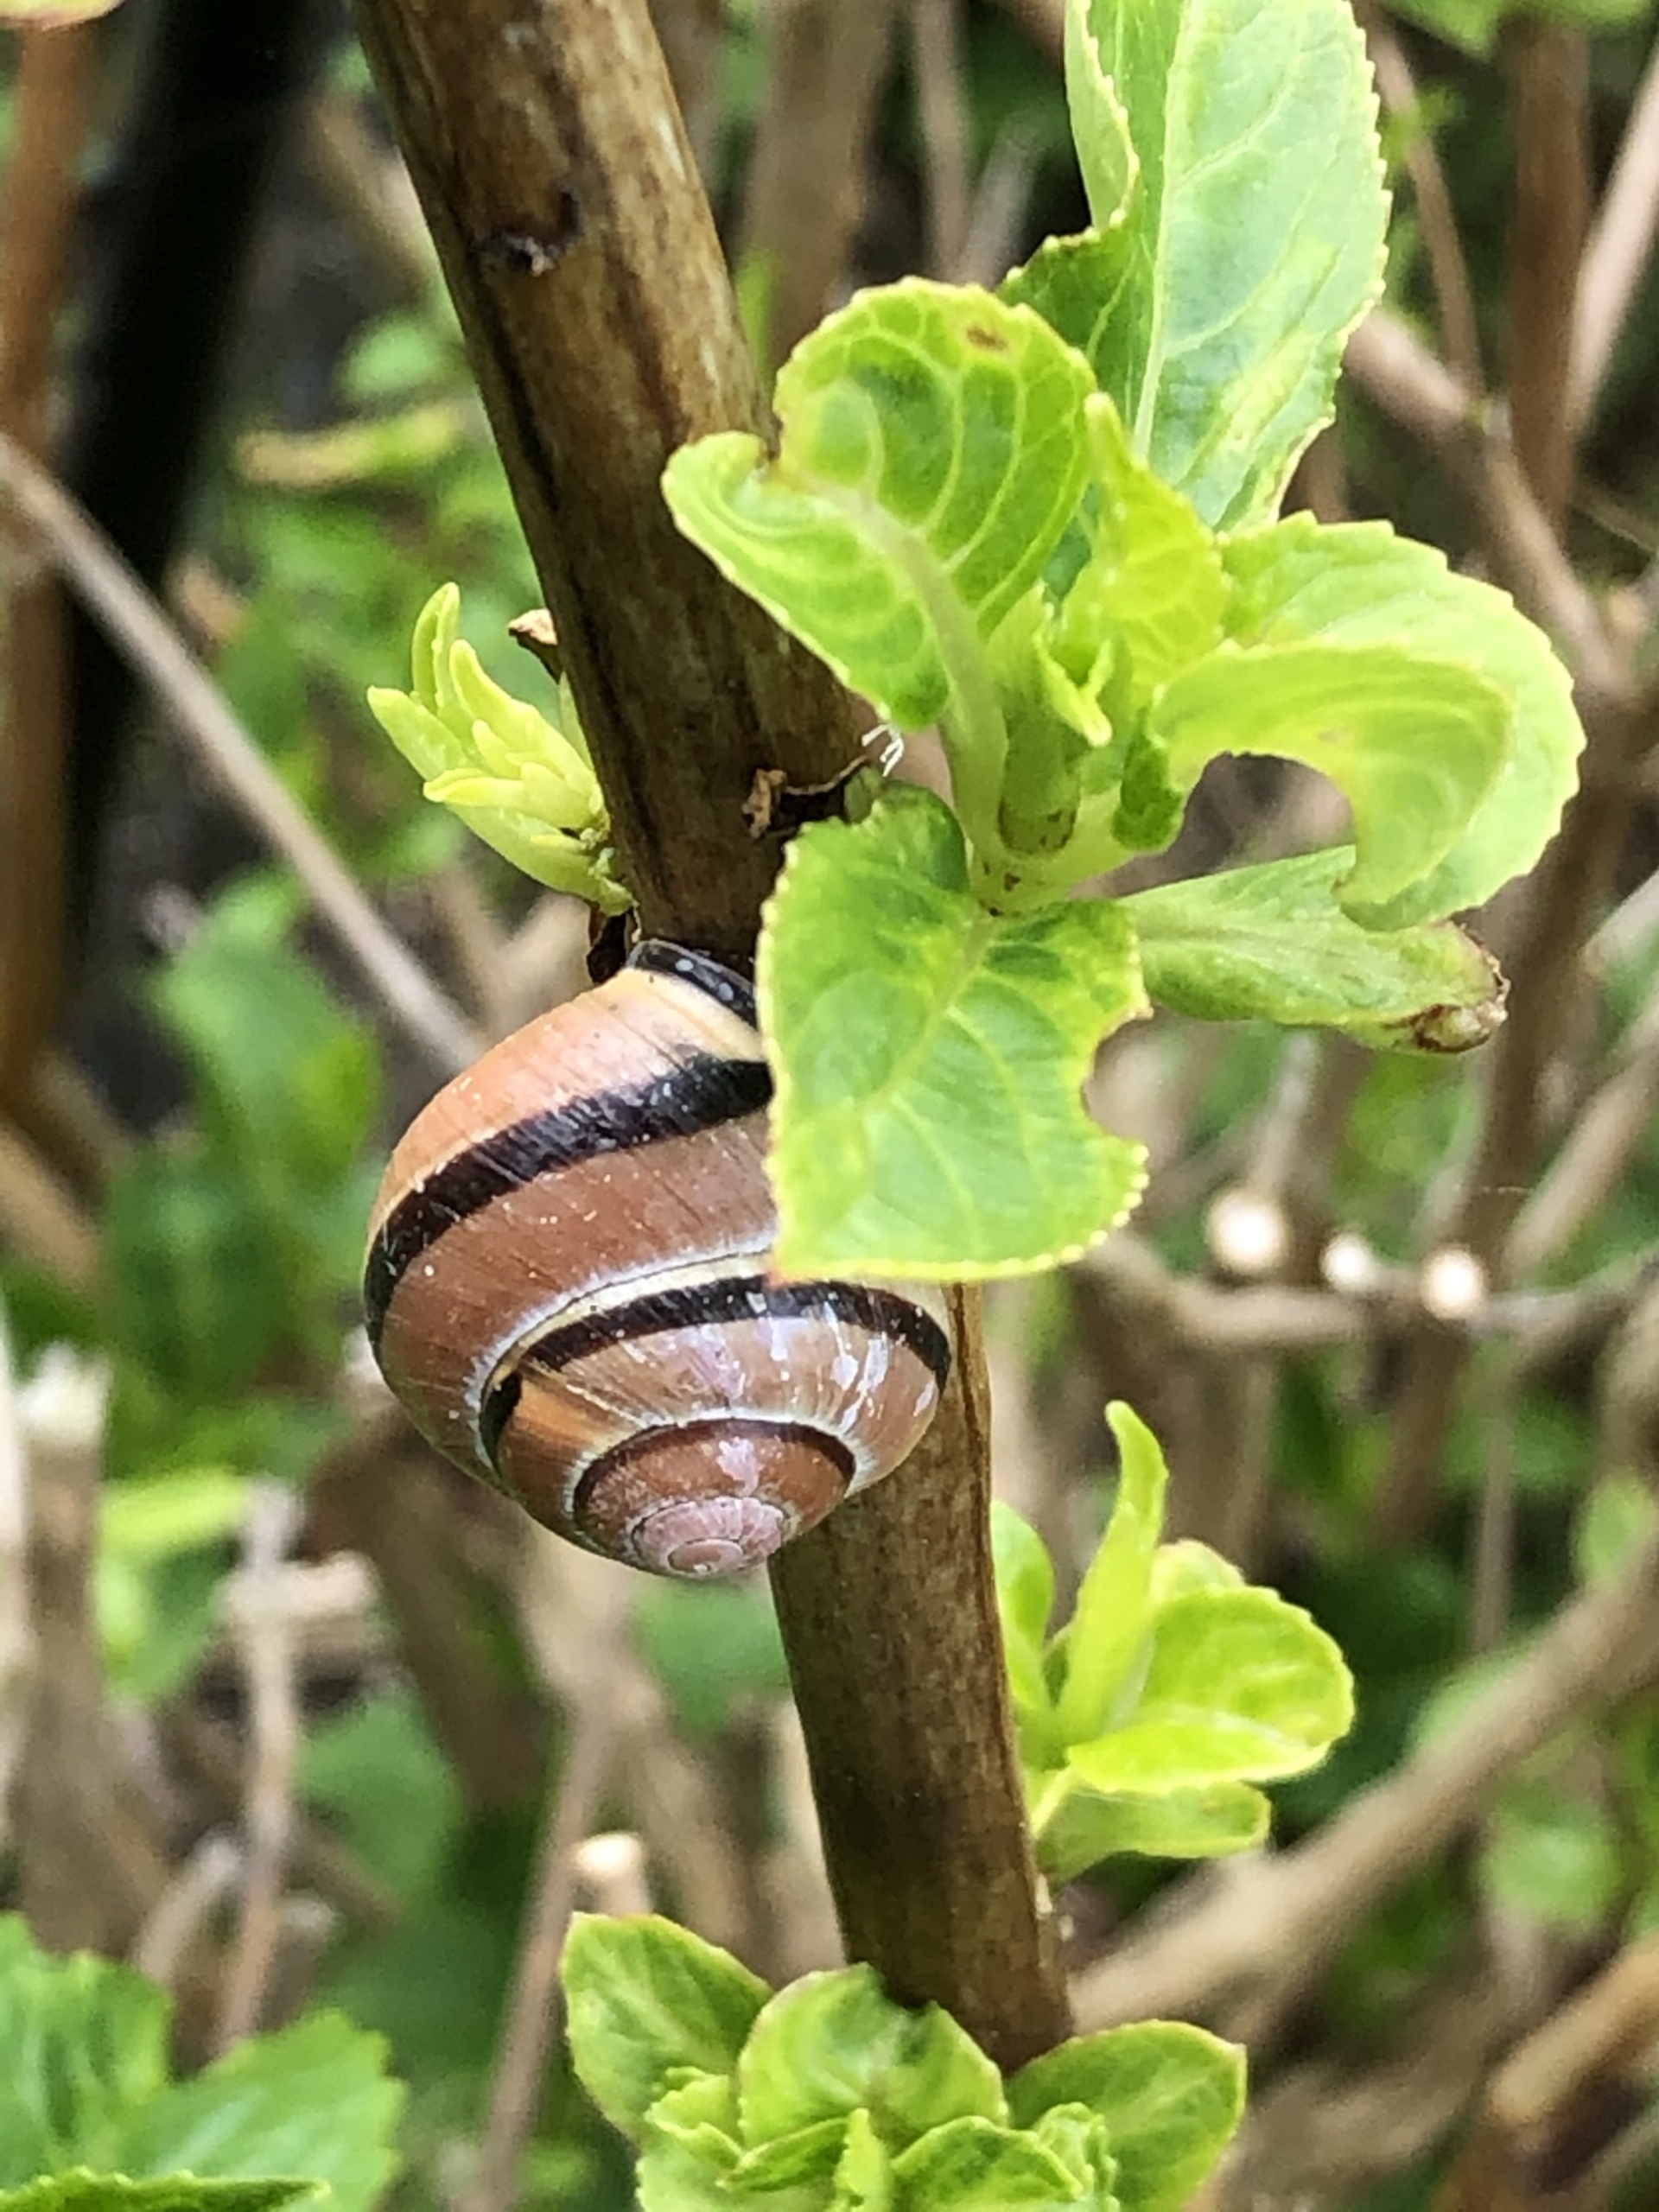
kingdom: Animalia
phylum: Mollusca
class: Gastropoda
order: Stylommatophora
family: Helicidae
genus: Cepaea
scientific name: Cepaea nemoralis
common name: Lundsnegl
